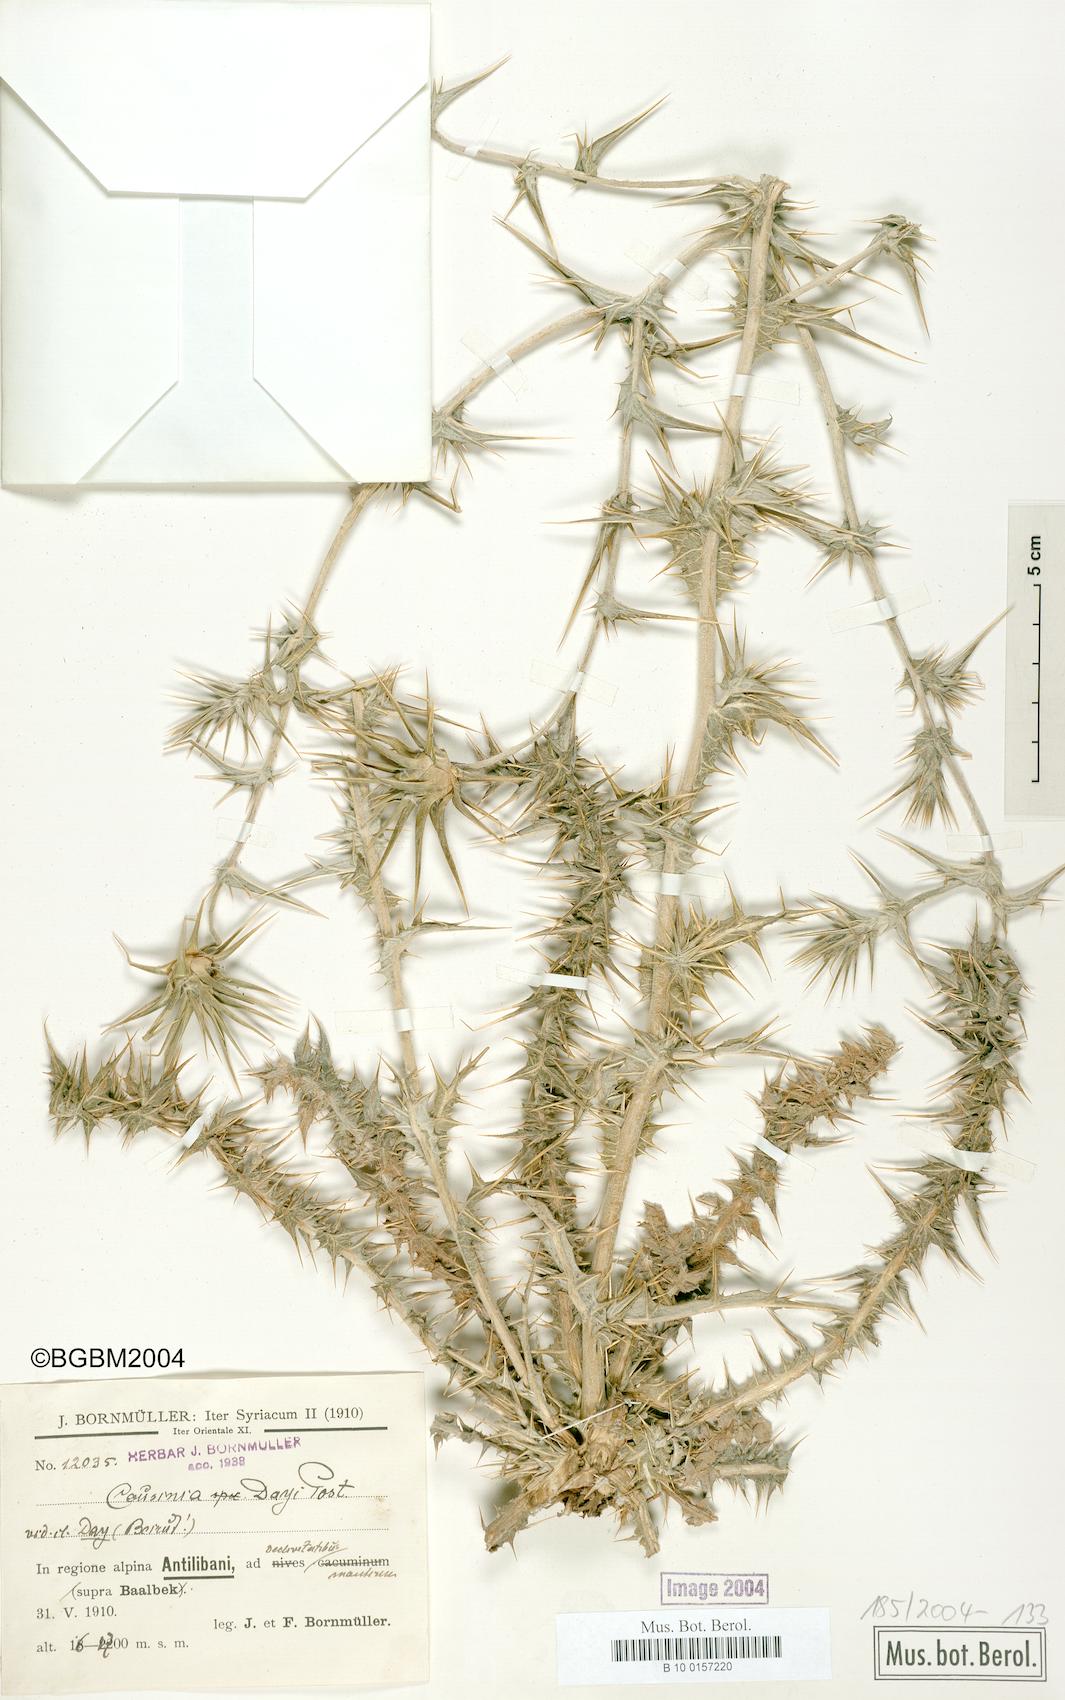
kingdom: Plantae
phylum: Tracheophyta
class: Magnoliopsida
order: Asterales
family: Asteraceae
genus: Cousinia
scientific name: Cousinia libanotica
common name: Lebanon cousinia
